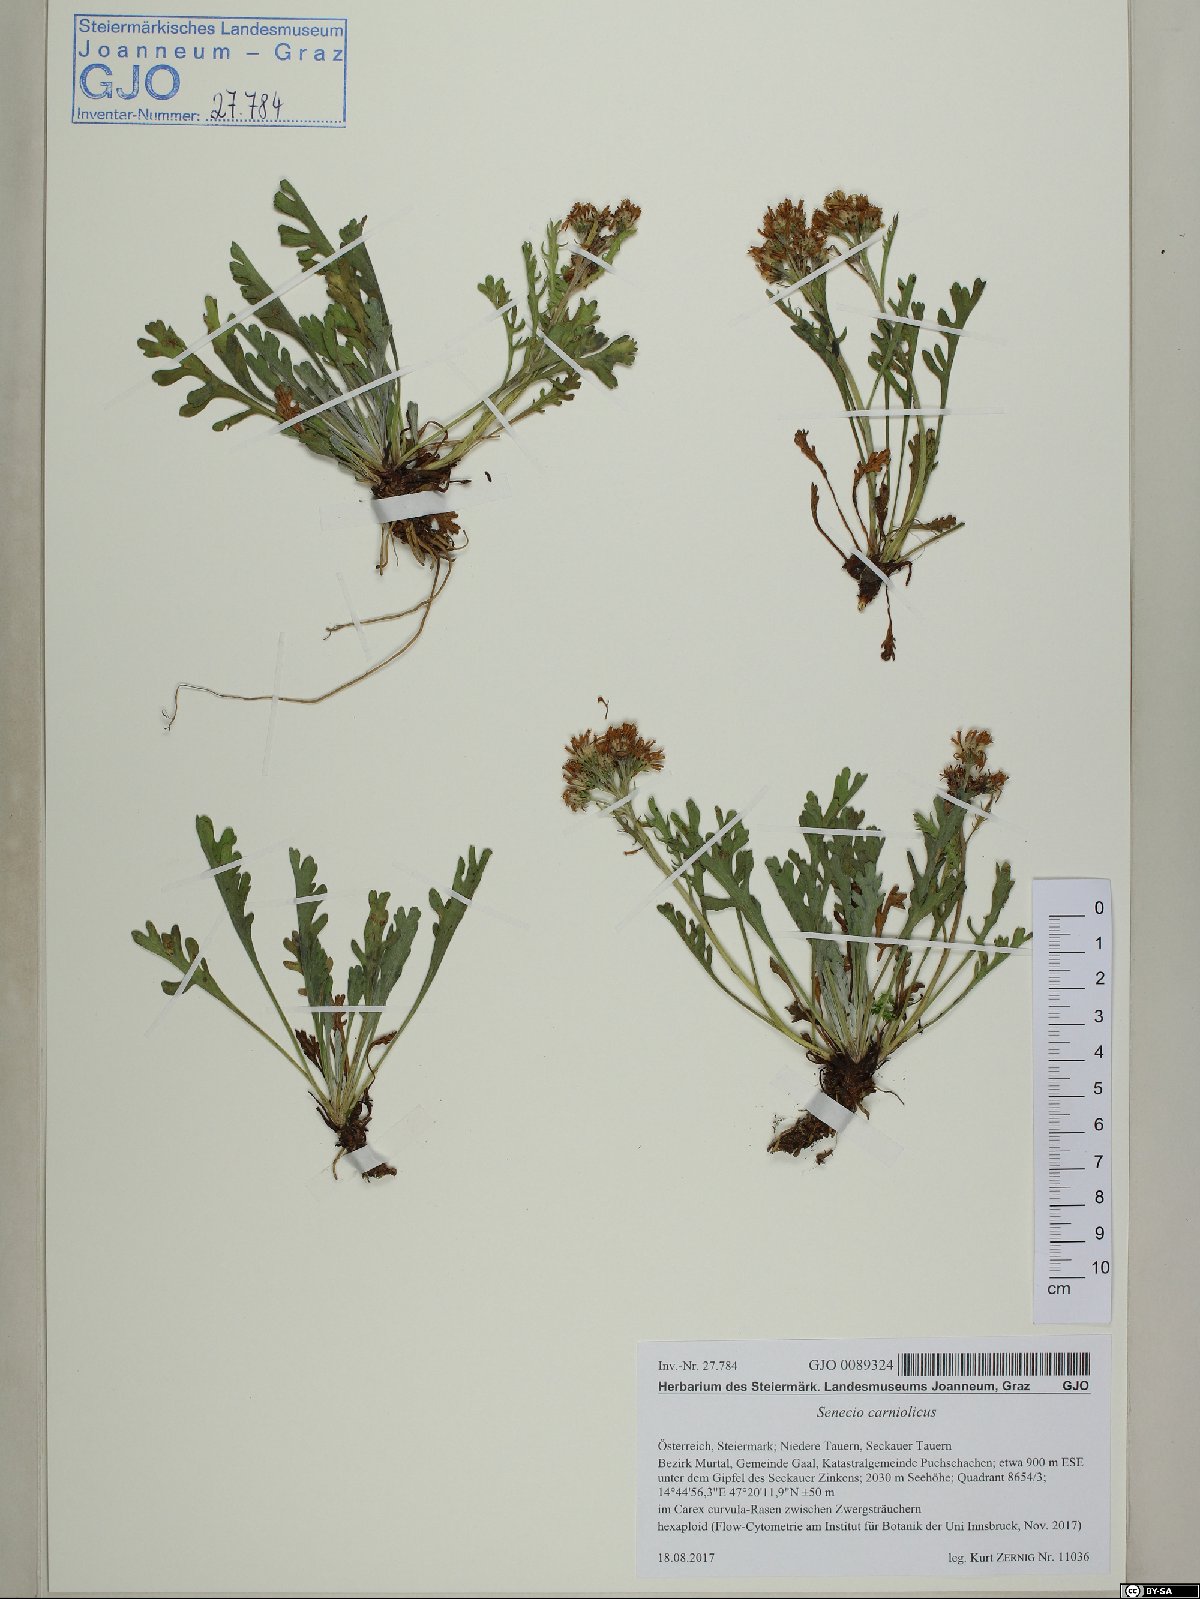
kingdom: Plantae
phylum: Tracheophyta
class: Magnoliopsida
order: Asterales
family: Asteraceae
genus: Jacobaea
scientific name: Jacobaea carniolica
